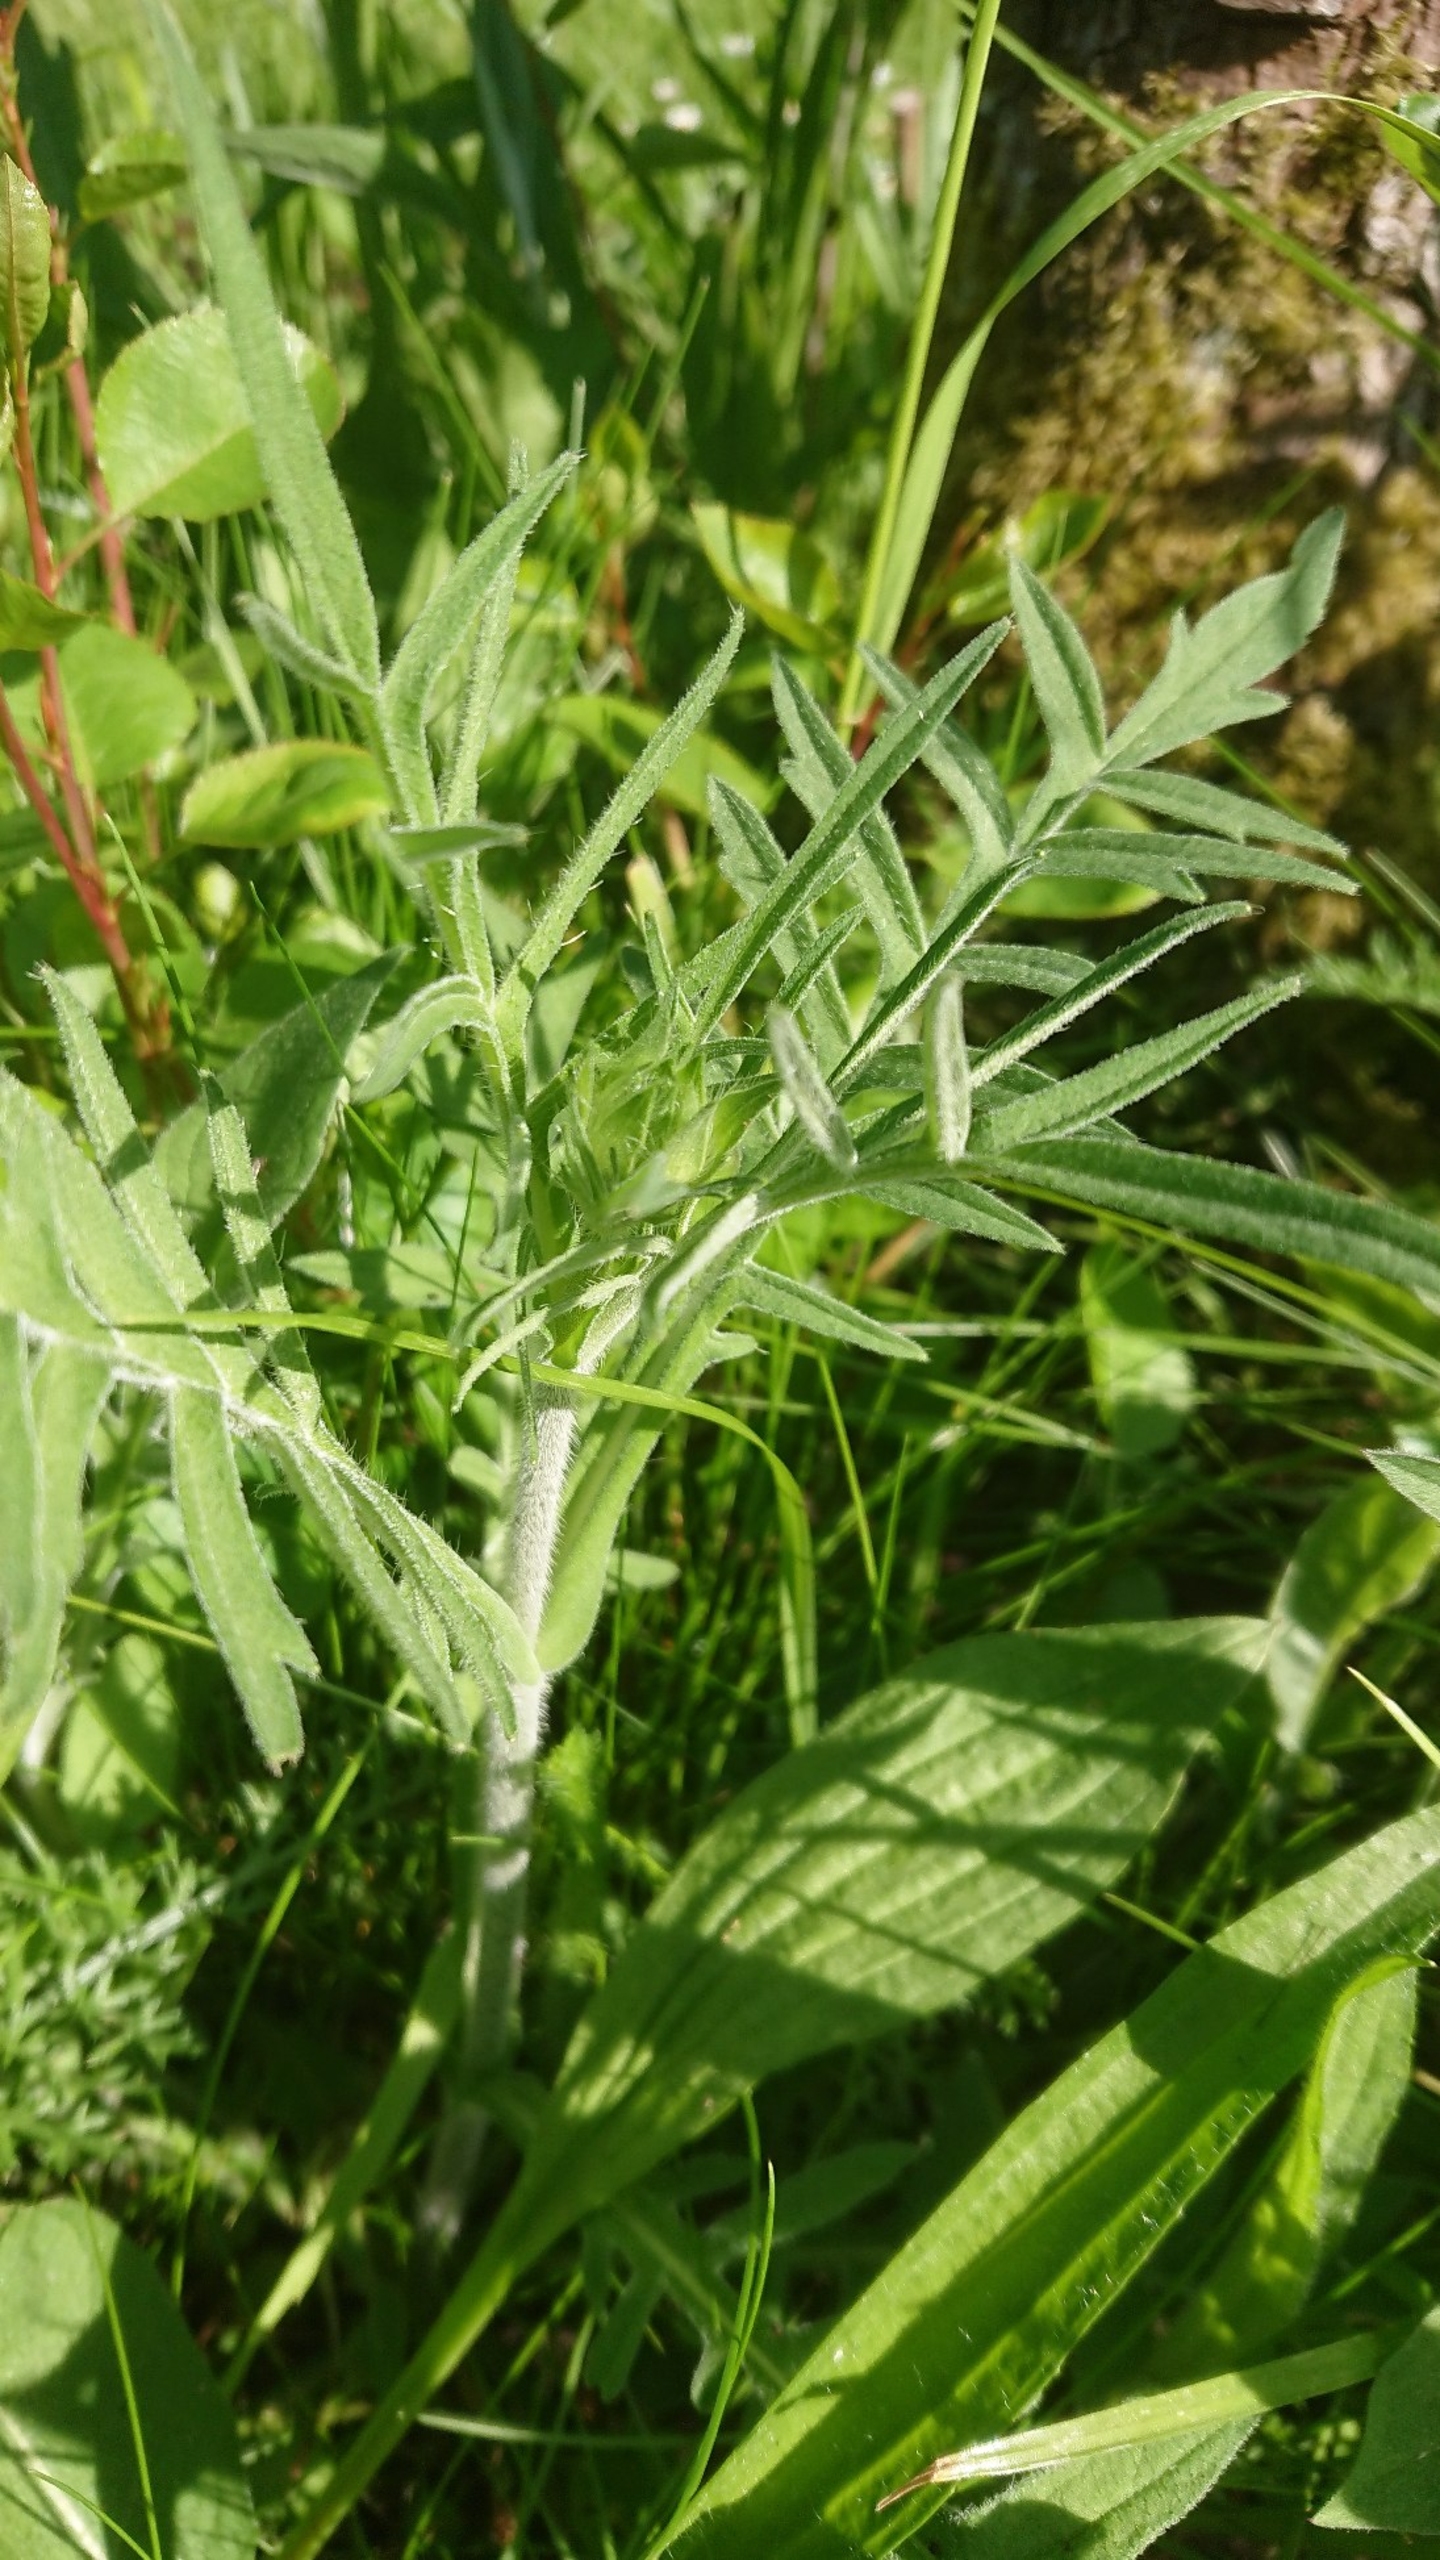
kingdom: Plantae
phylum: Tracheophyta
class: Magnoliopsida
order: Dipsacales
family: Caprifoliaceae
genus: Knautia
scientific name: Knautia arvensis
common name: Blåhat
